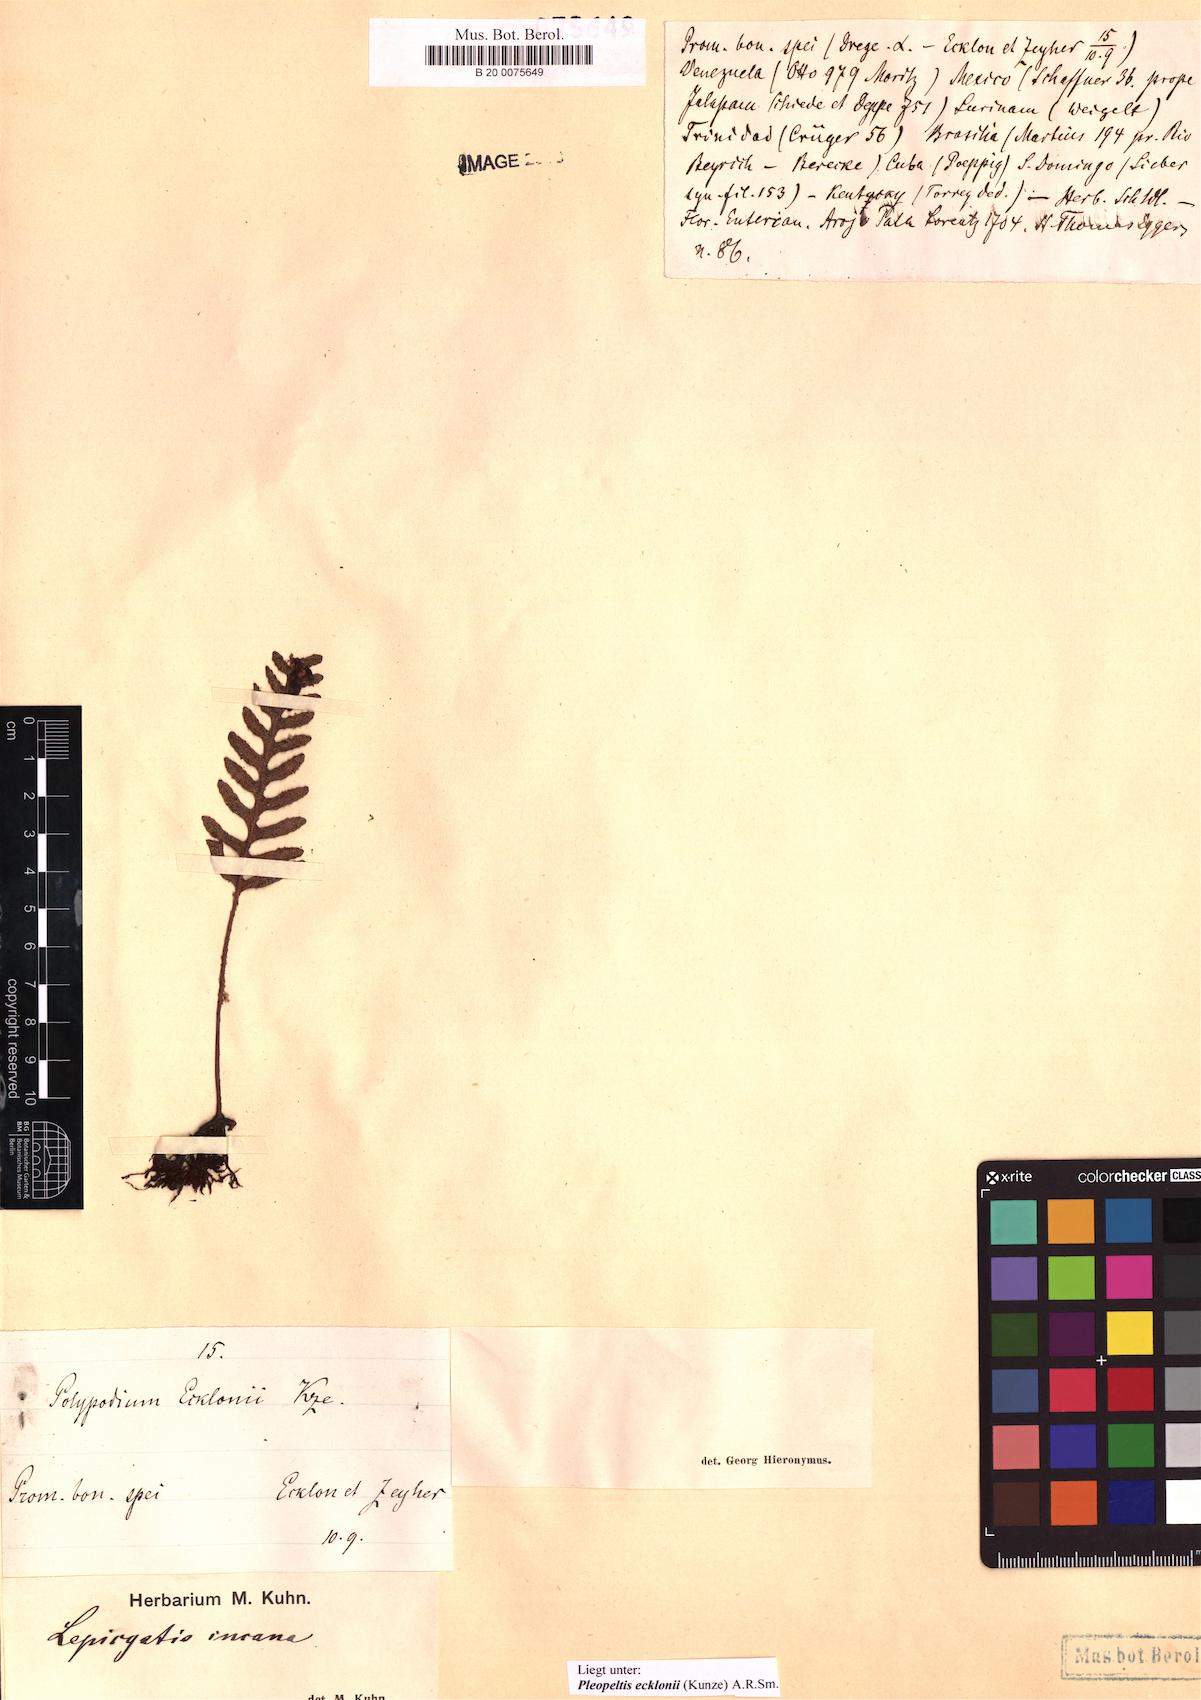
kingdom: Plantae
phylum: Tracheophyta
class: Polypodiopsida
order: Polypodiales
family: Polypodiaceae
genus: Pleopeltis
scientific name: Pleopeltis ecklonii
